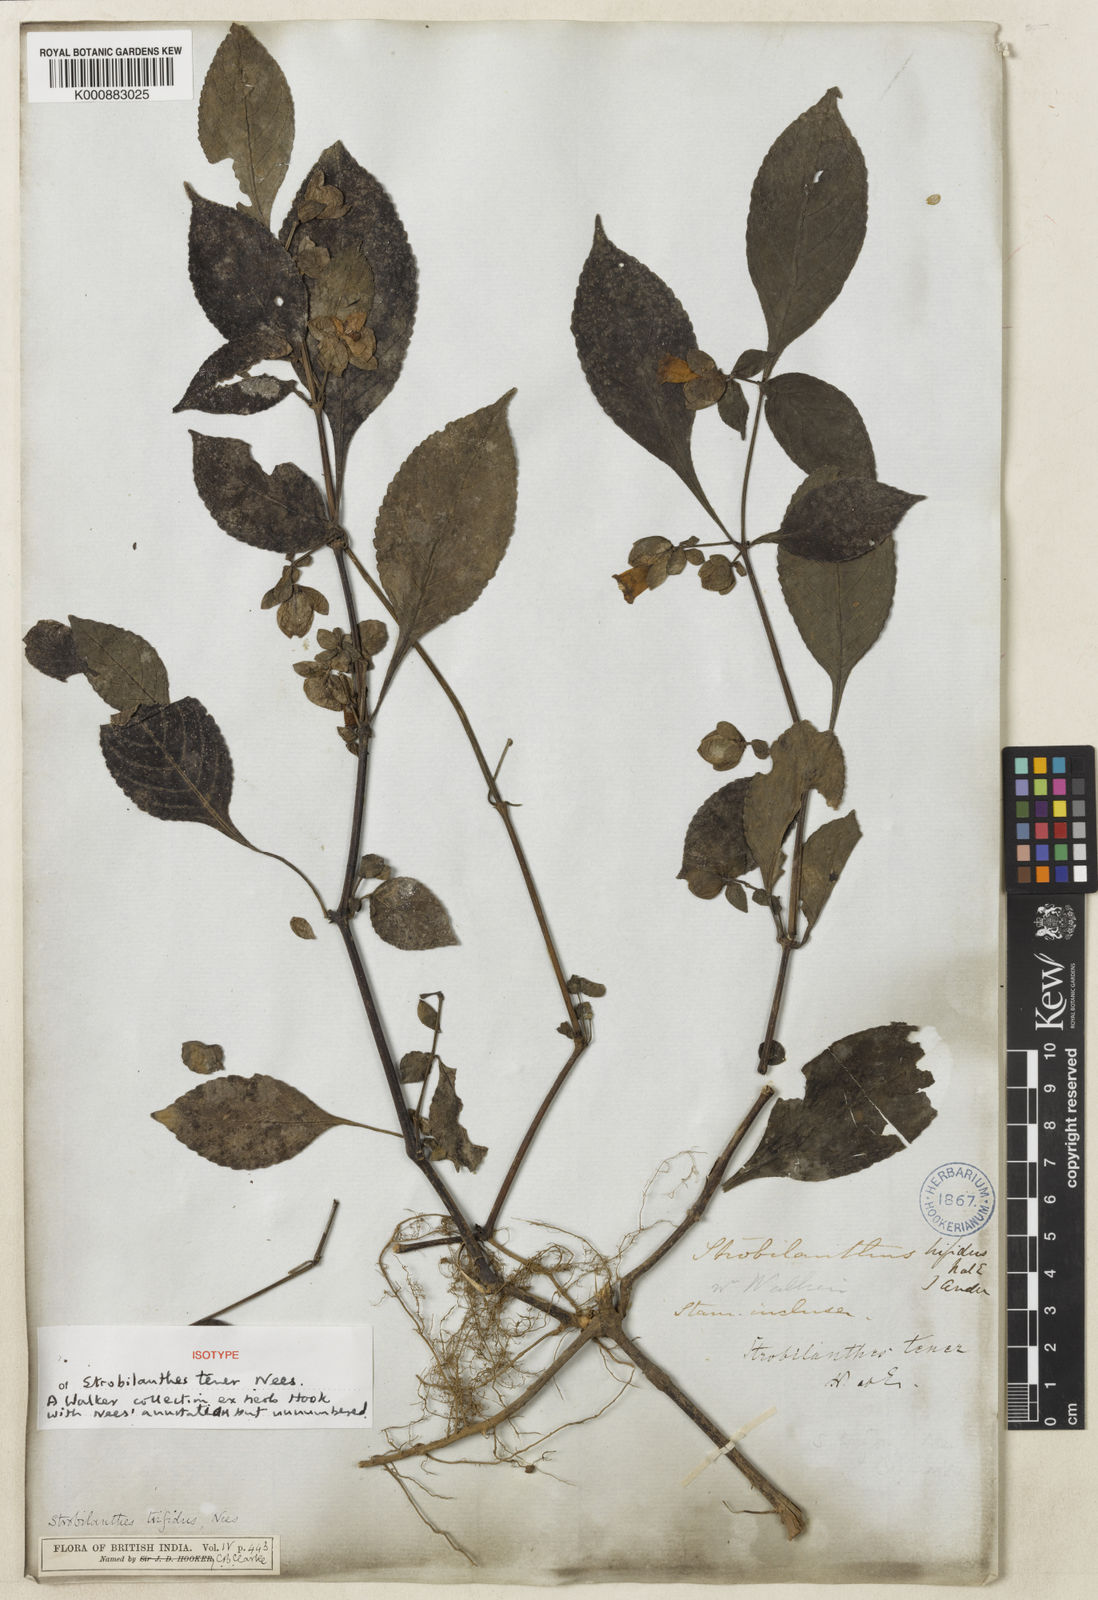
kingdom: Plantae
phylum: Tracheophyta
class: Magnoliopsida
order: Lamiales
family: Acanthaceae
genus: Strobilanthes
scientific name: Strobilanthes
